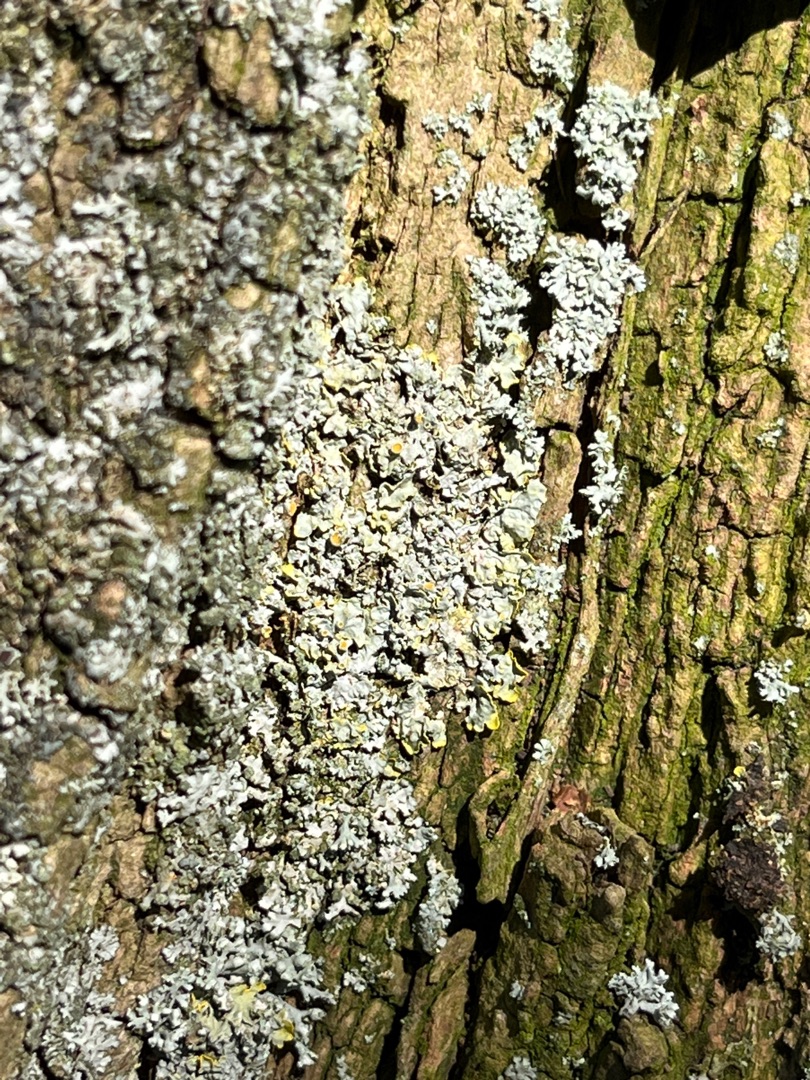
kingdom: Fungi
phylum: Ascomycota
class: Lecanoromycetes
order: Teloschistales
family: Teloschistaceae
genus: Xanthoria
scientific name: Xanthoria parietina
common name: Almindelig væggelav
